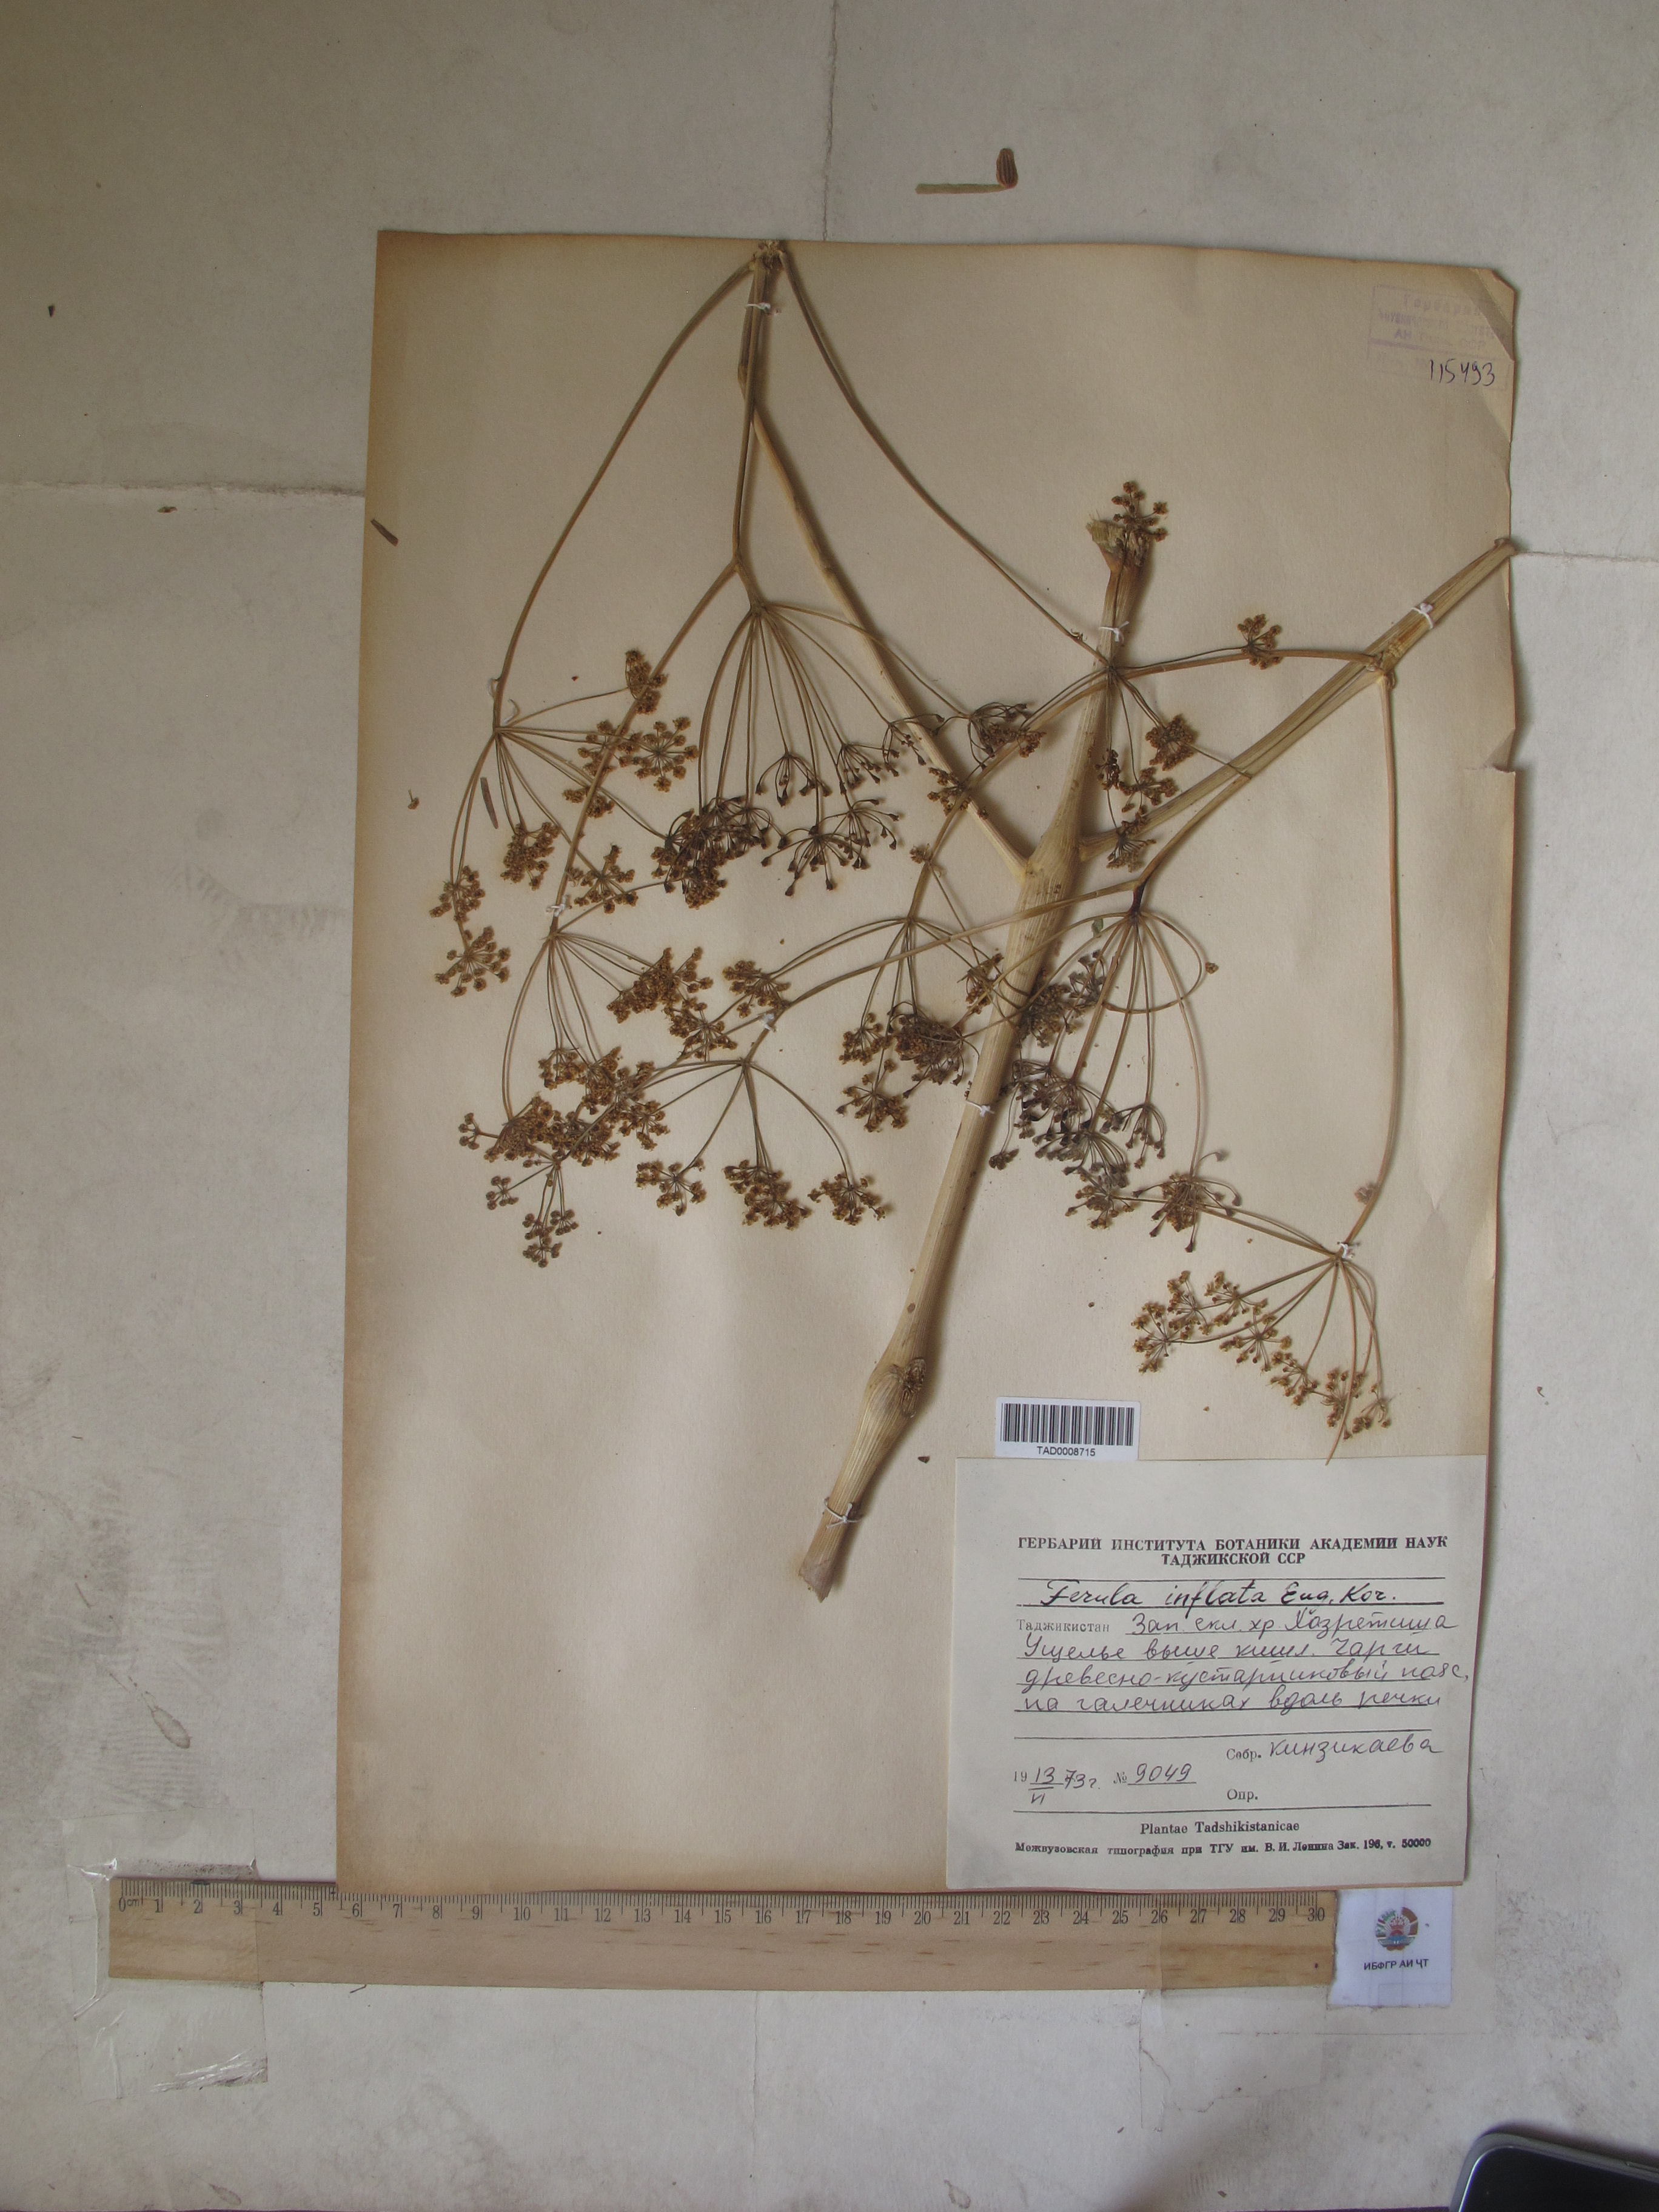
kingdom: Plantae
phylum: Tracheophyta
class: Magnoliopsida
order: Apiales
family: Apiaceae
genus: Ferula
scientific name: Ferula gigantea
